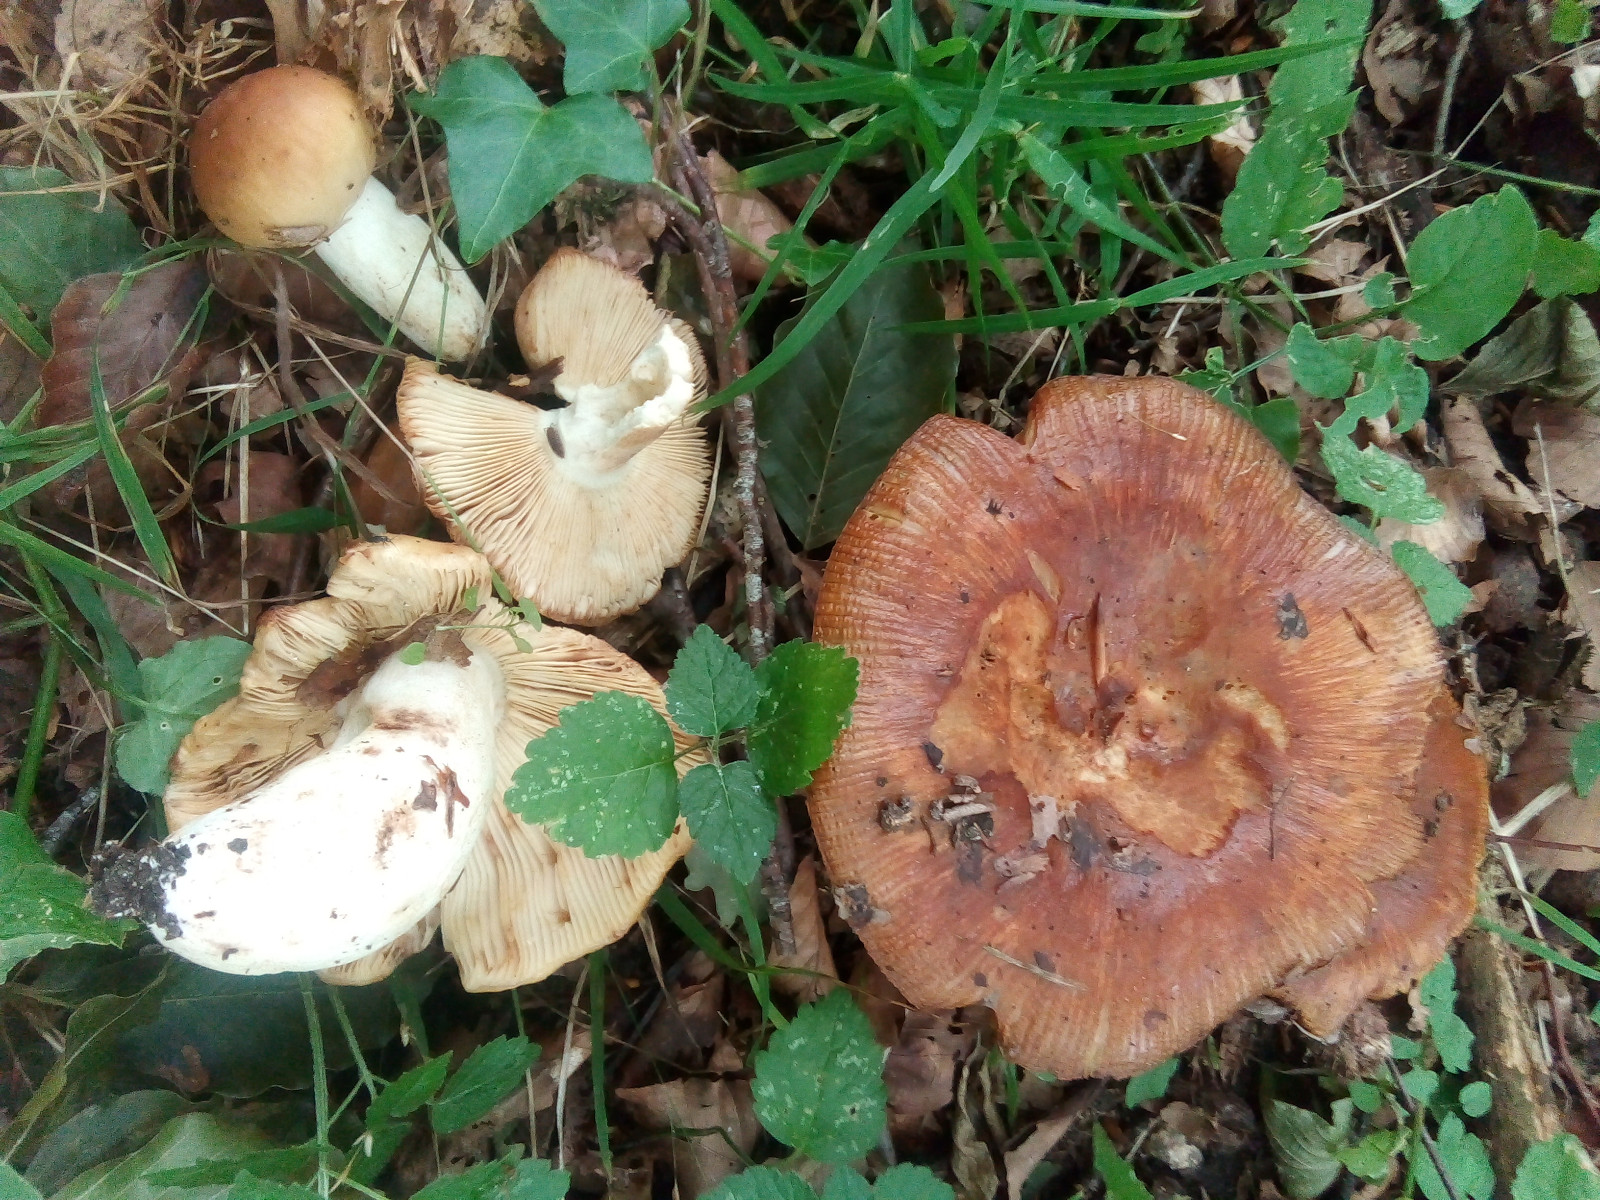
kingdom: Fungi
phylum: Basidiomycota
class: Agaricomycetes
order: Russulales
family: Russulaceae
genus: Russula
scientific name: Russula foetens
